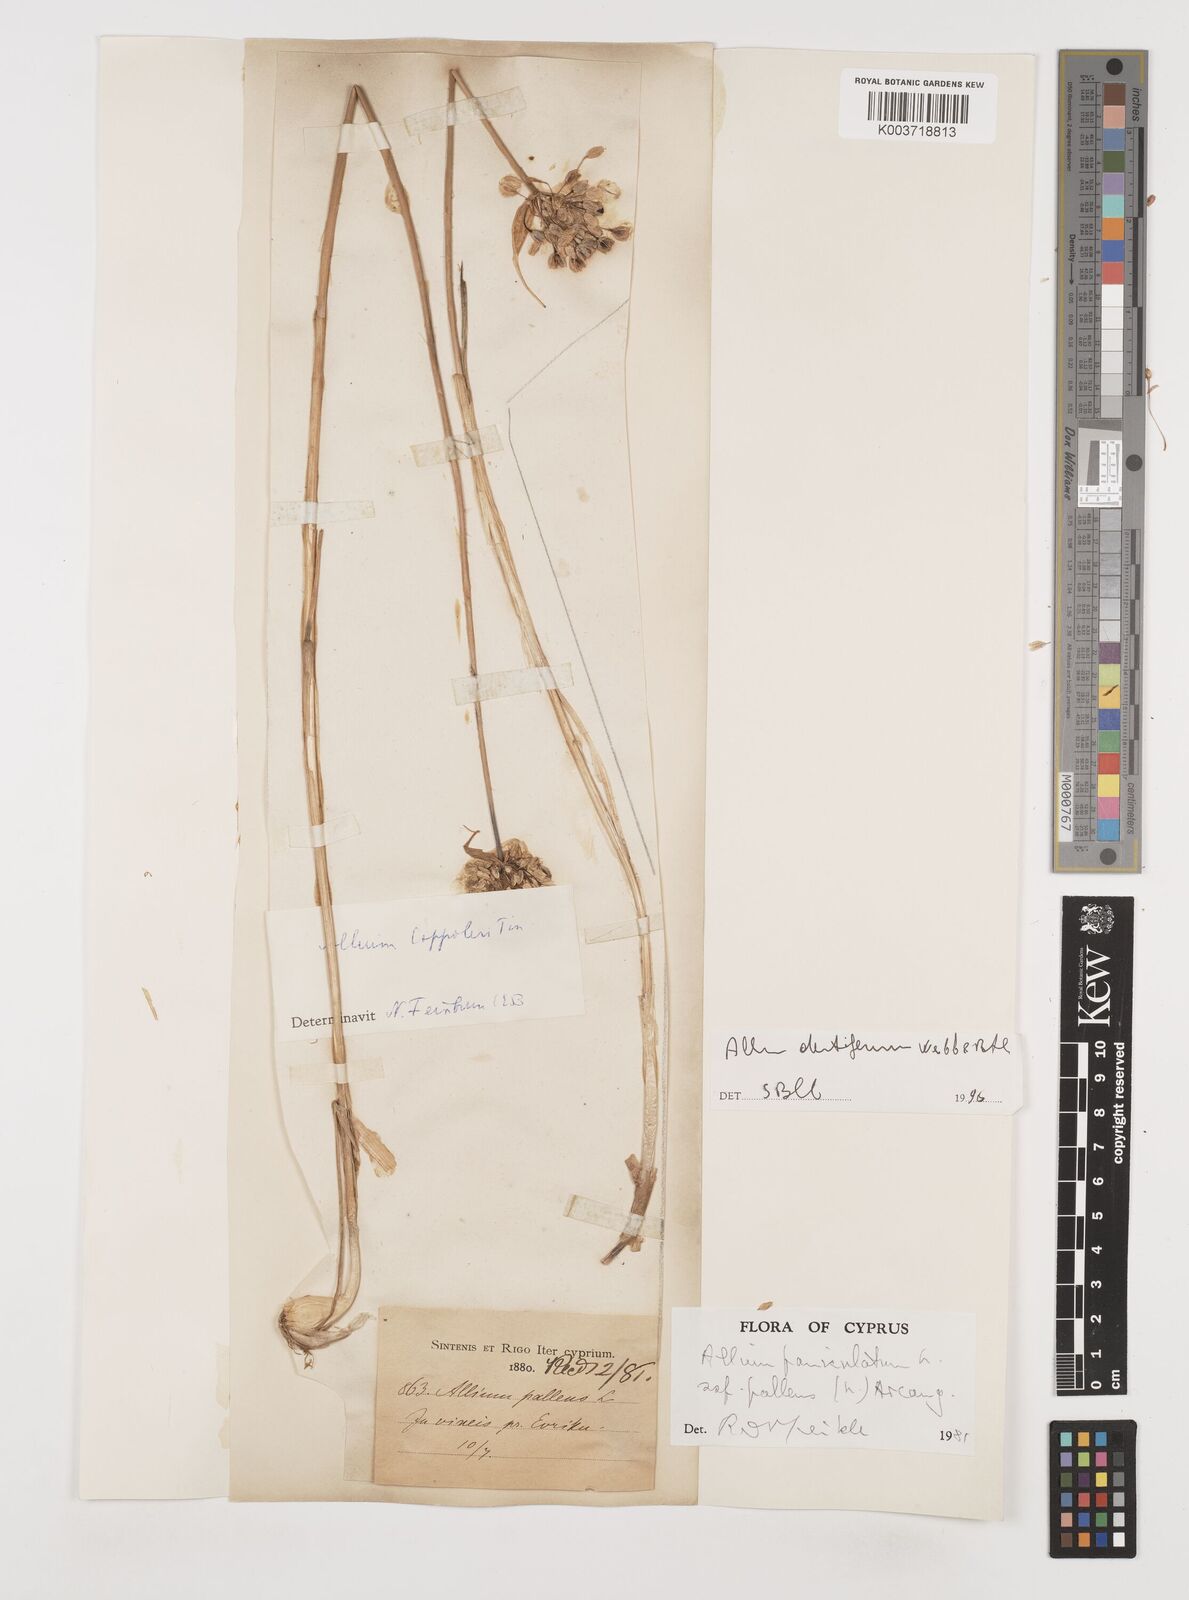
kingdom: Plantae
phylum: Tracheophyta
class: Liliopsida
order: Asparagales
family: Amaryllidaceae
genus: Allium
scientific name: Allium paniculatum
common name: Pale garlic
